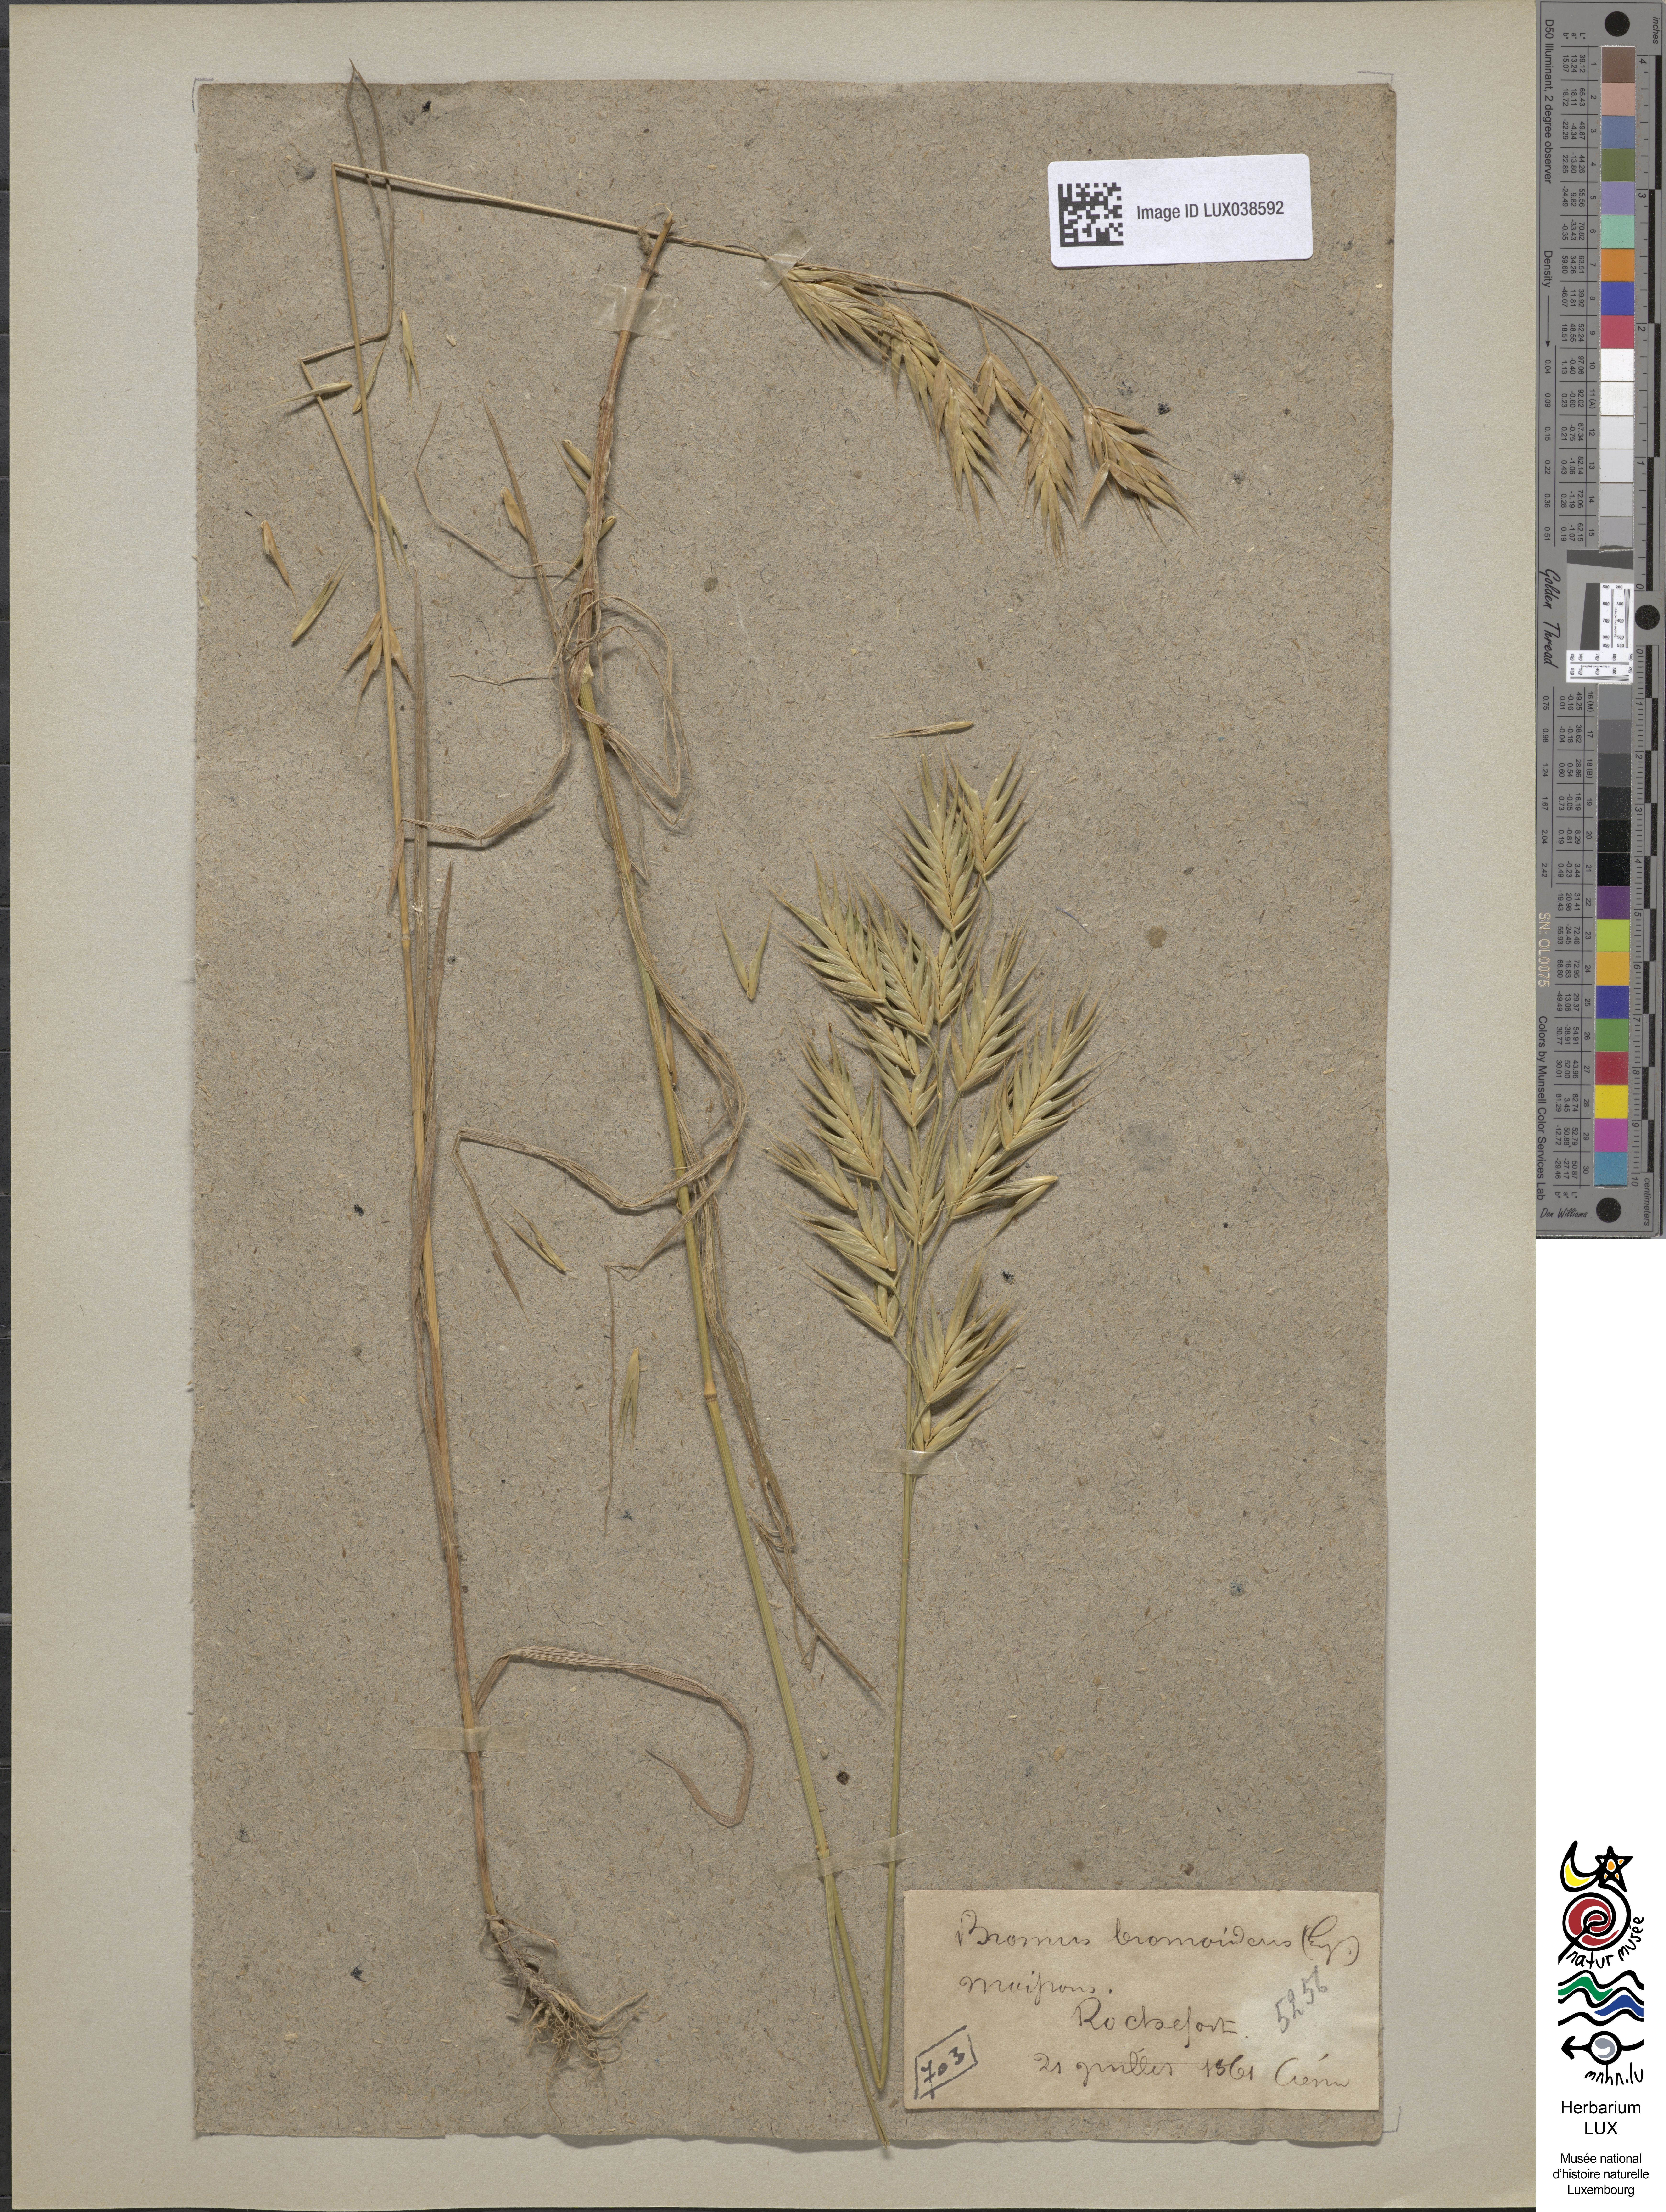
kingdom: Plantae
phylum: Tracheophyta
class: Liliopsida
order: Poales
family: Poaceae
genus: Bromus
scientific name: Bromus bromoideus
